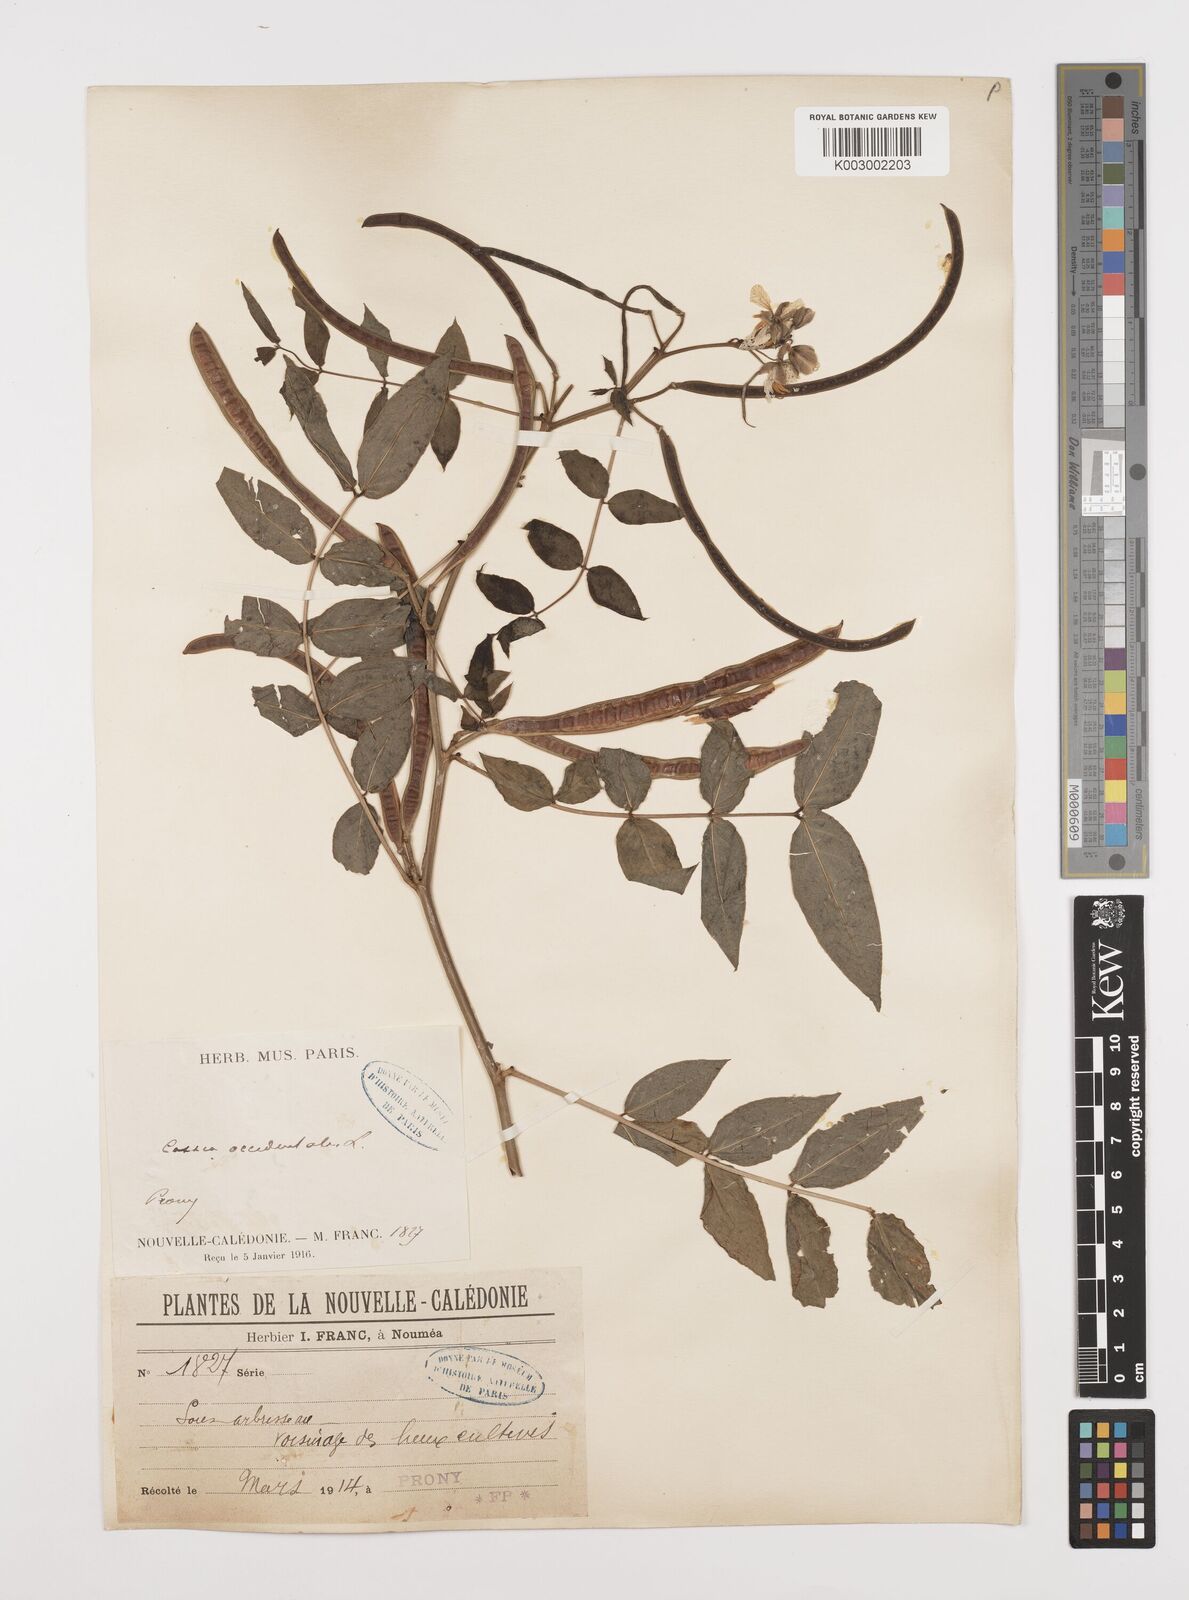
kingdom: Plantae
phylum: Tracheophyta
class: Magnoliopsida
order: Fabales
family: Fabaceae
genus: Senna
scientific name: Senna occidentalis
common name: Septicweed
